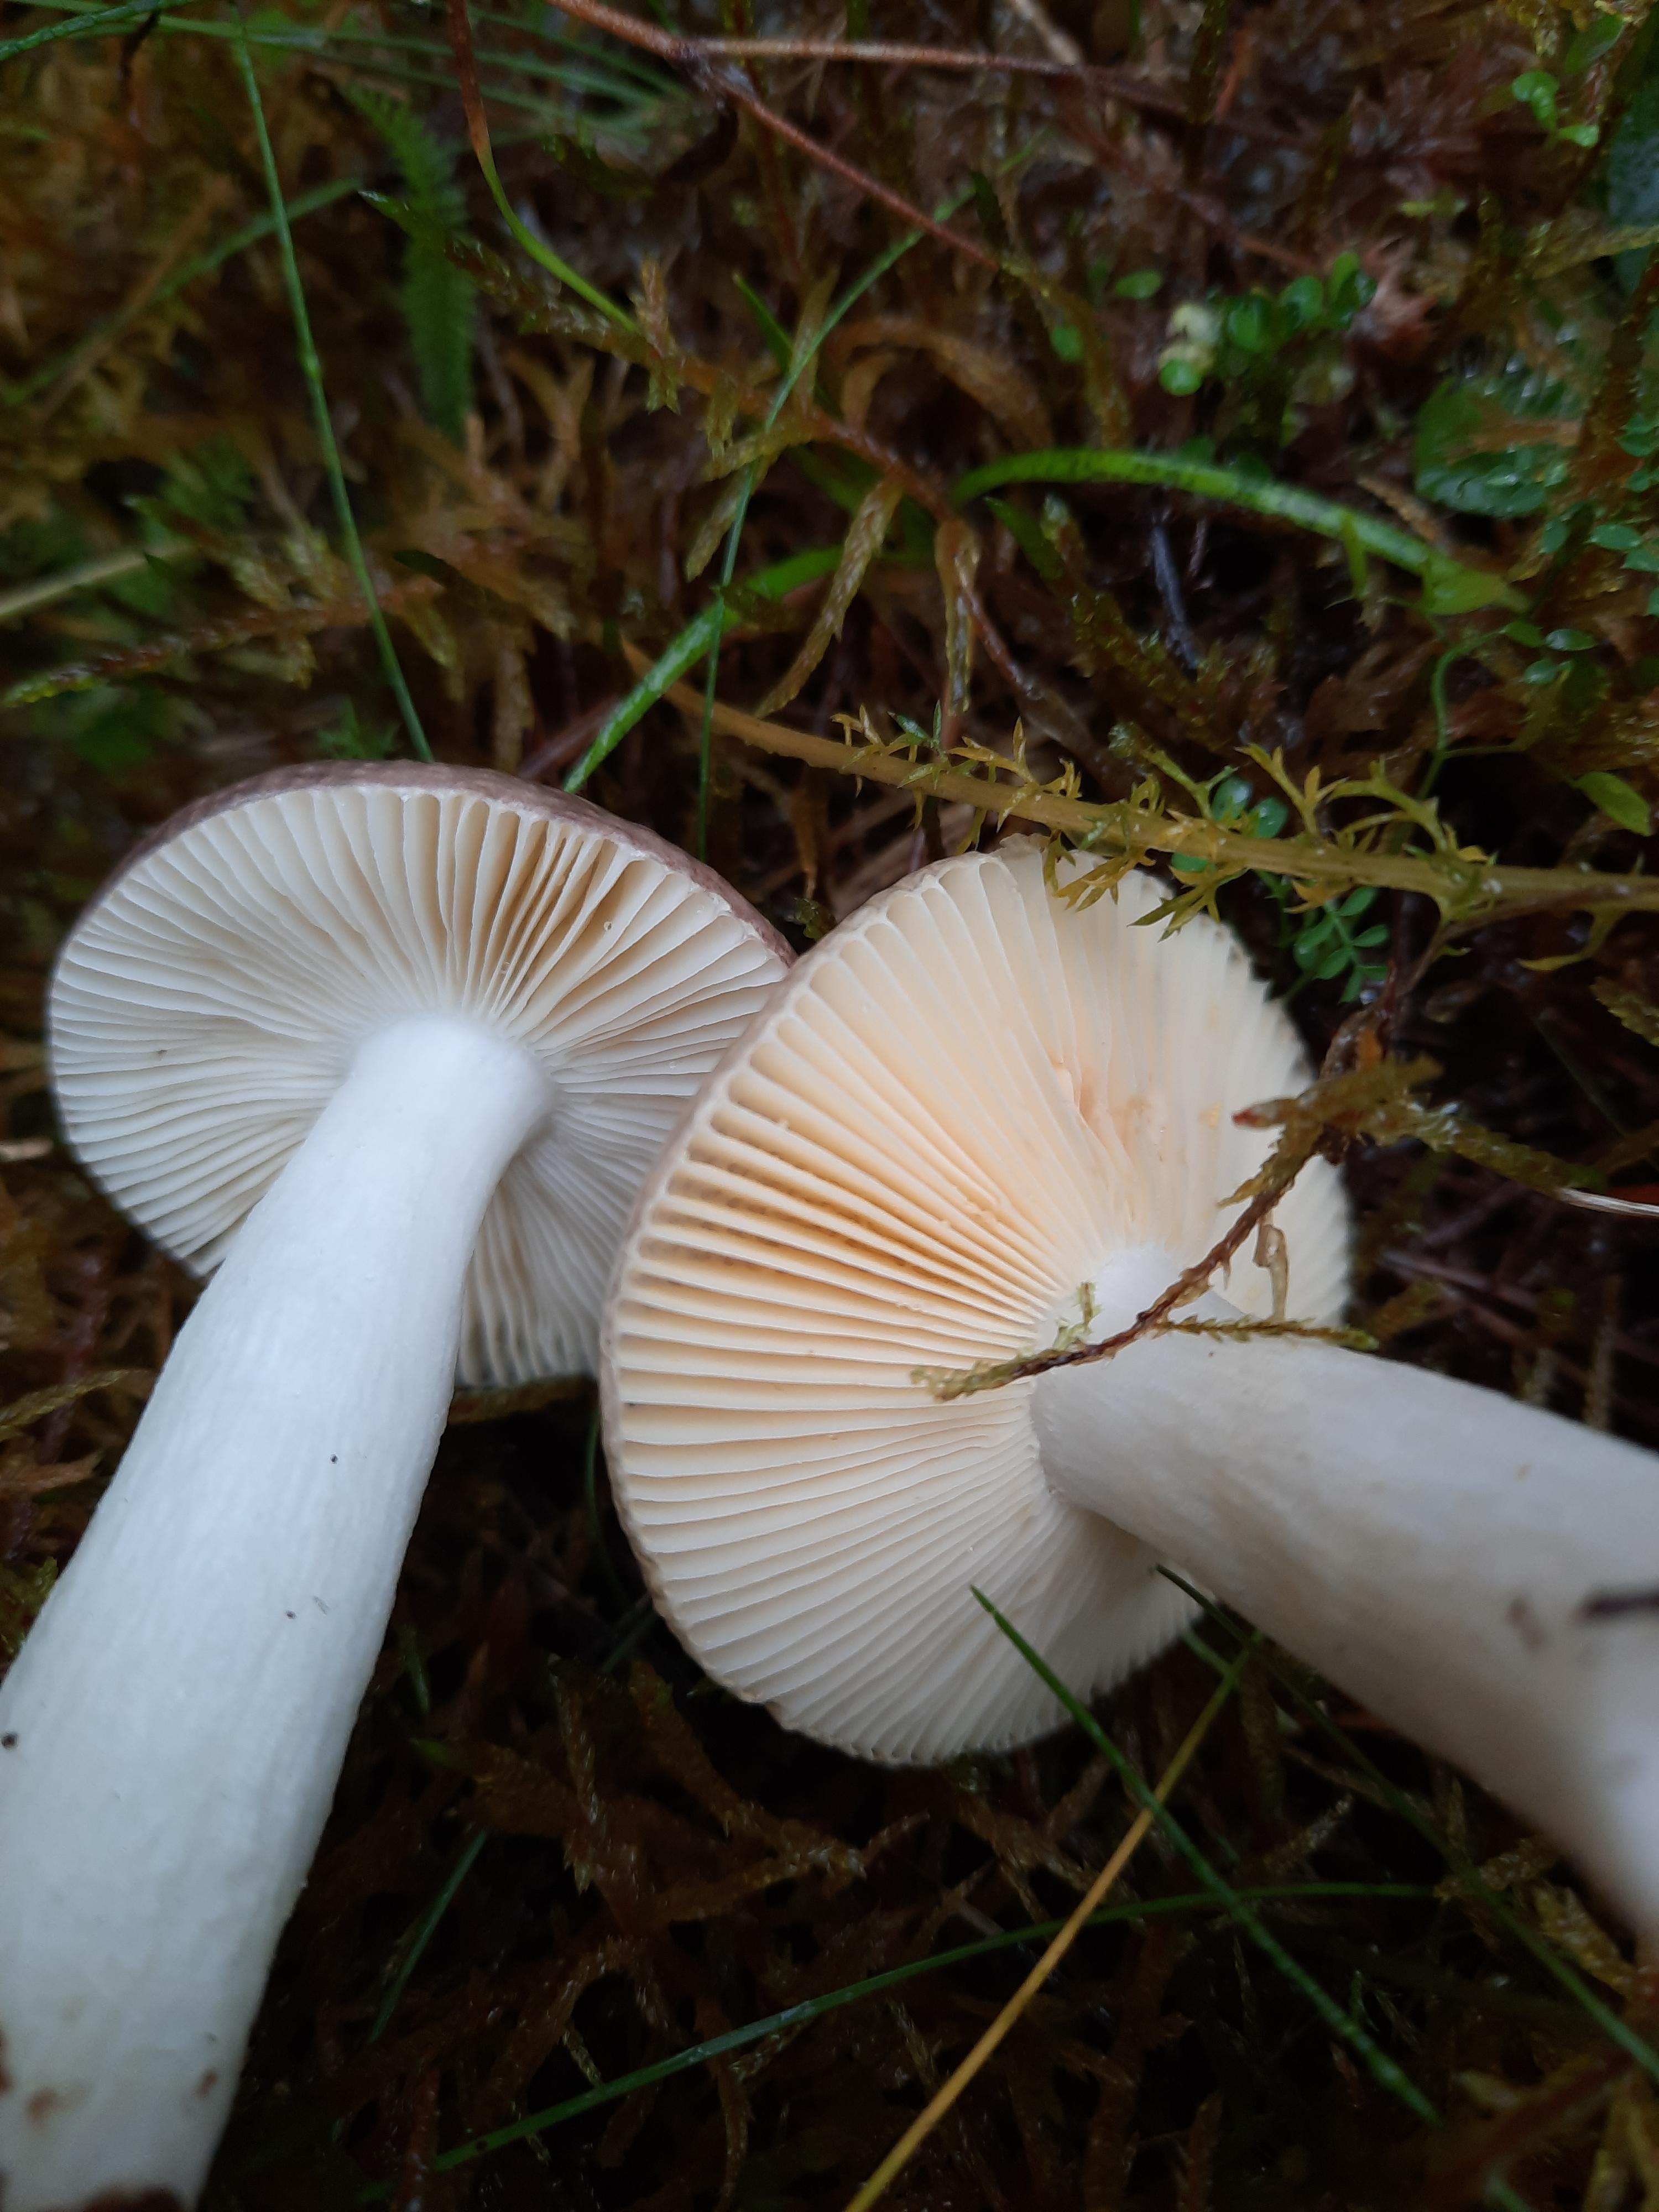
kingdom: Fungi
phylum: Basidiomycota
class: Agaricomycetes
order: Russulales
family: Russulaceae
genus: Russula
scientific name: Russula nauseosa
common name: spinkel skørhat
